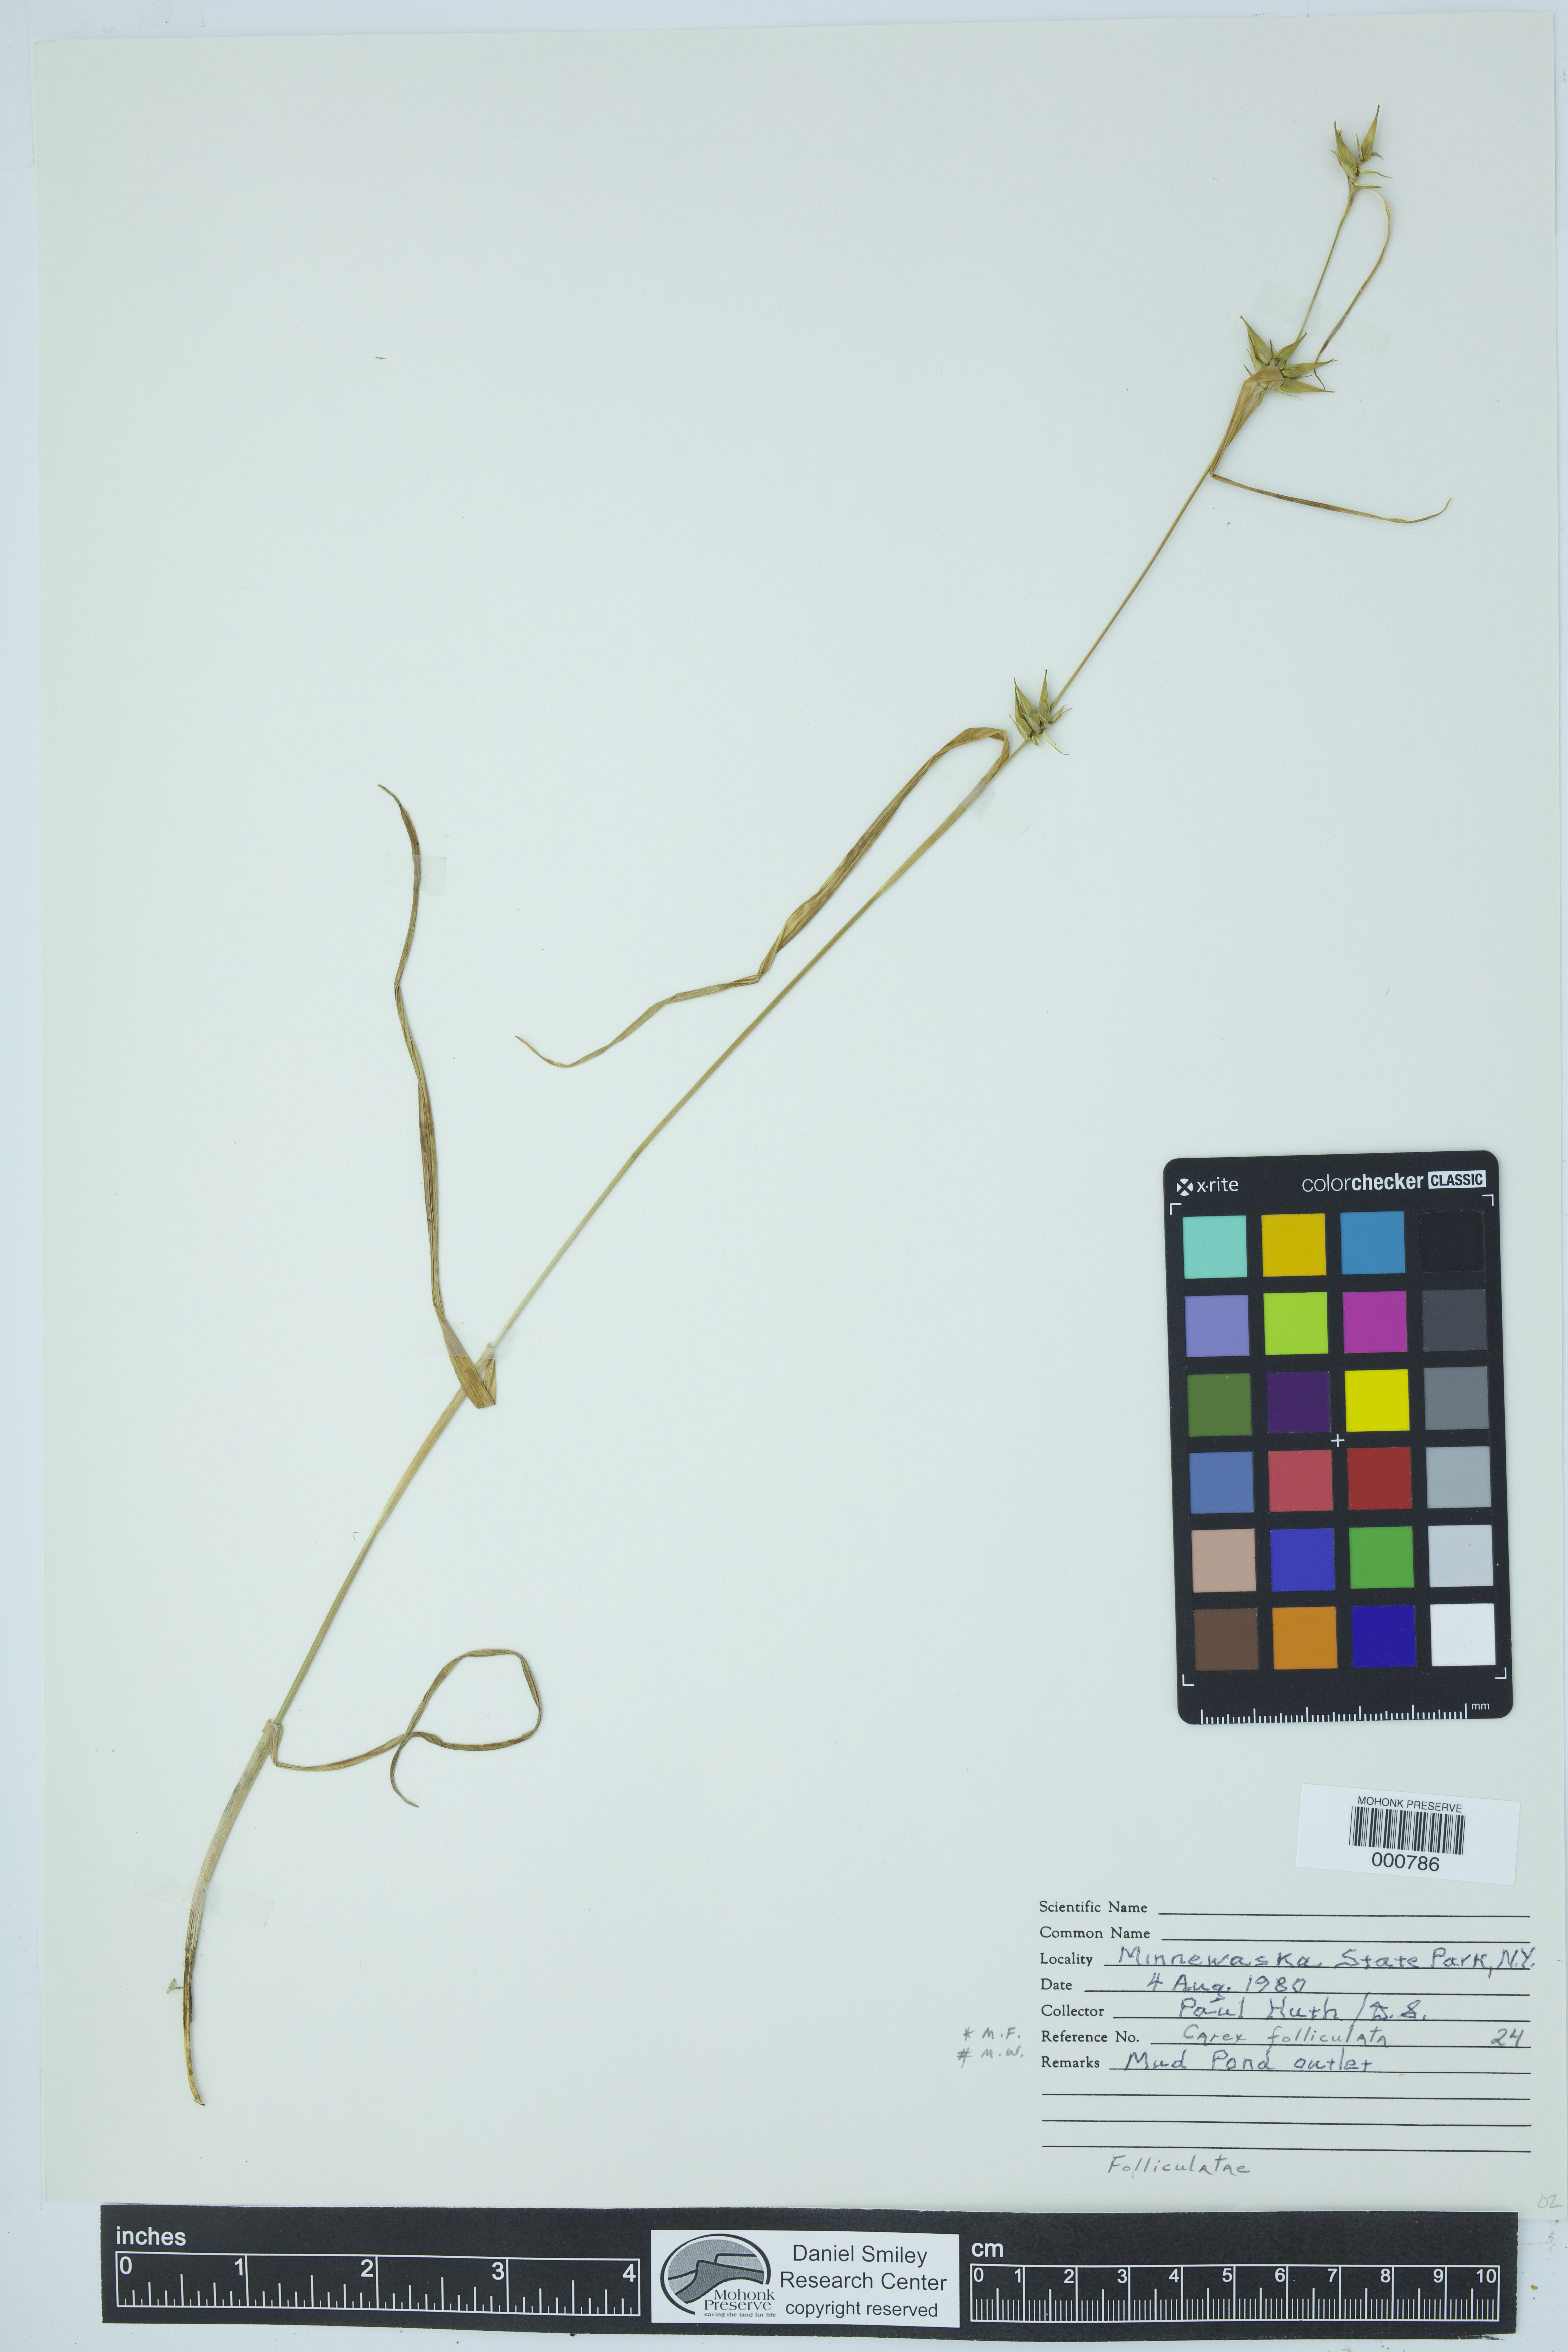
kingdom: Plantae
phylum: Tracheophyta
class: Liliopsida
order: Poales
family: Cyperaceae
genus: Carex
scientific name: Carex folliculata
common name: Northern long sedge
